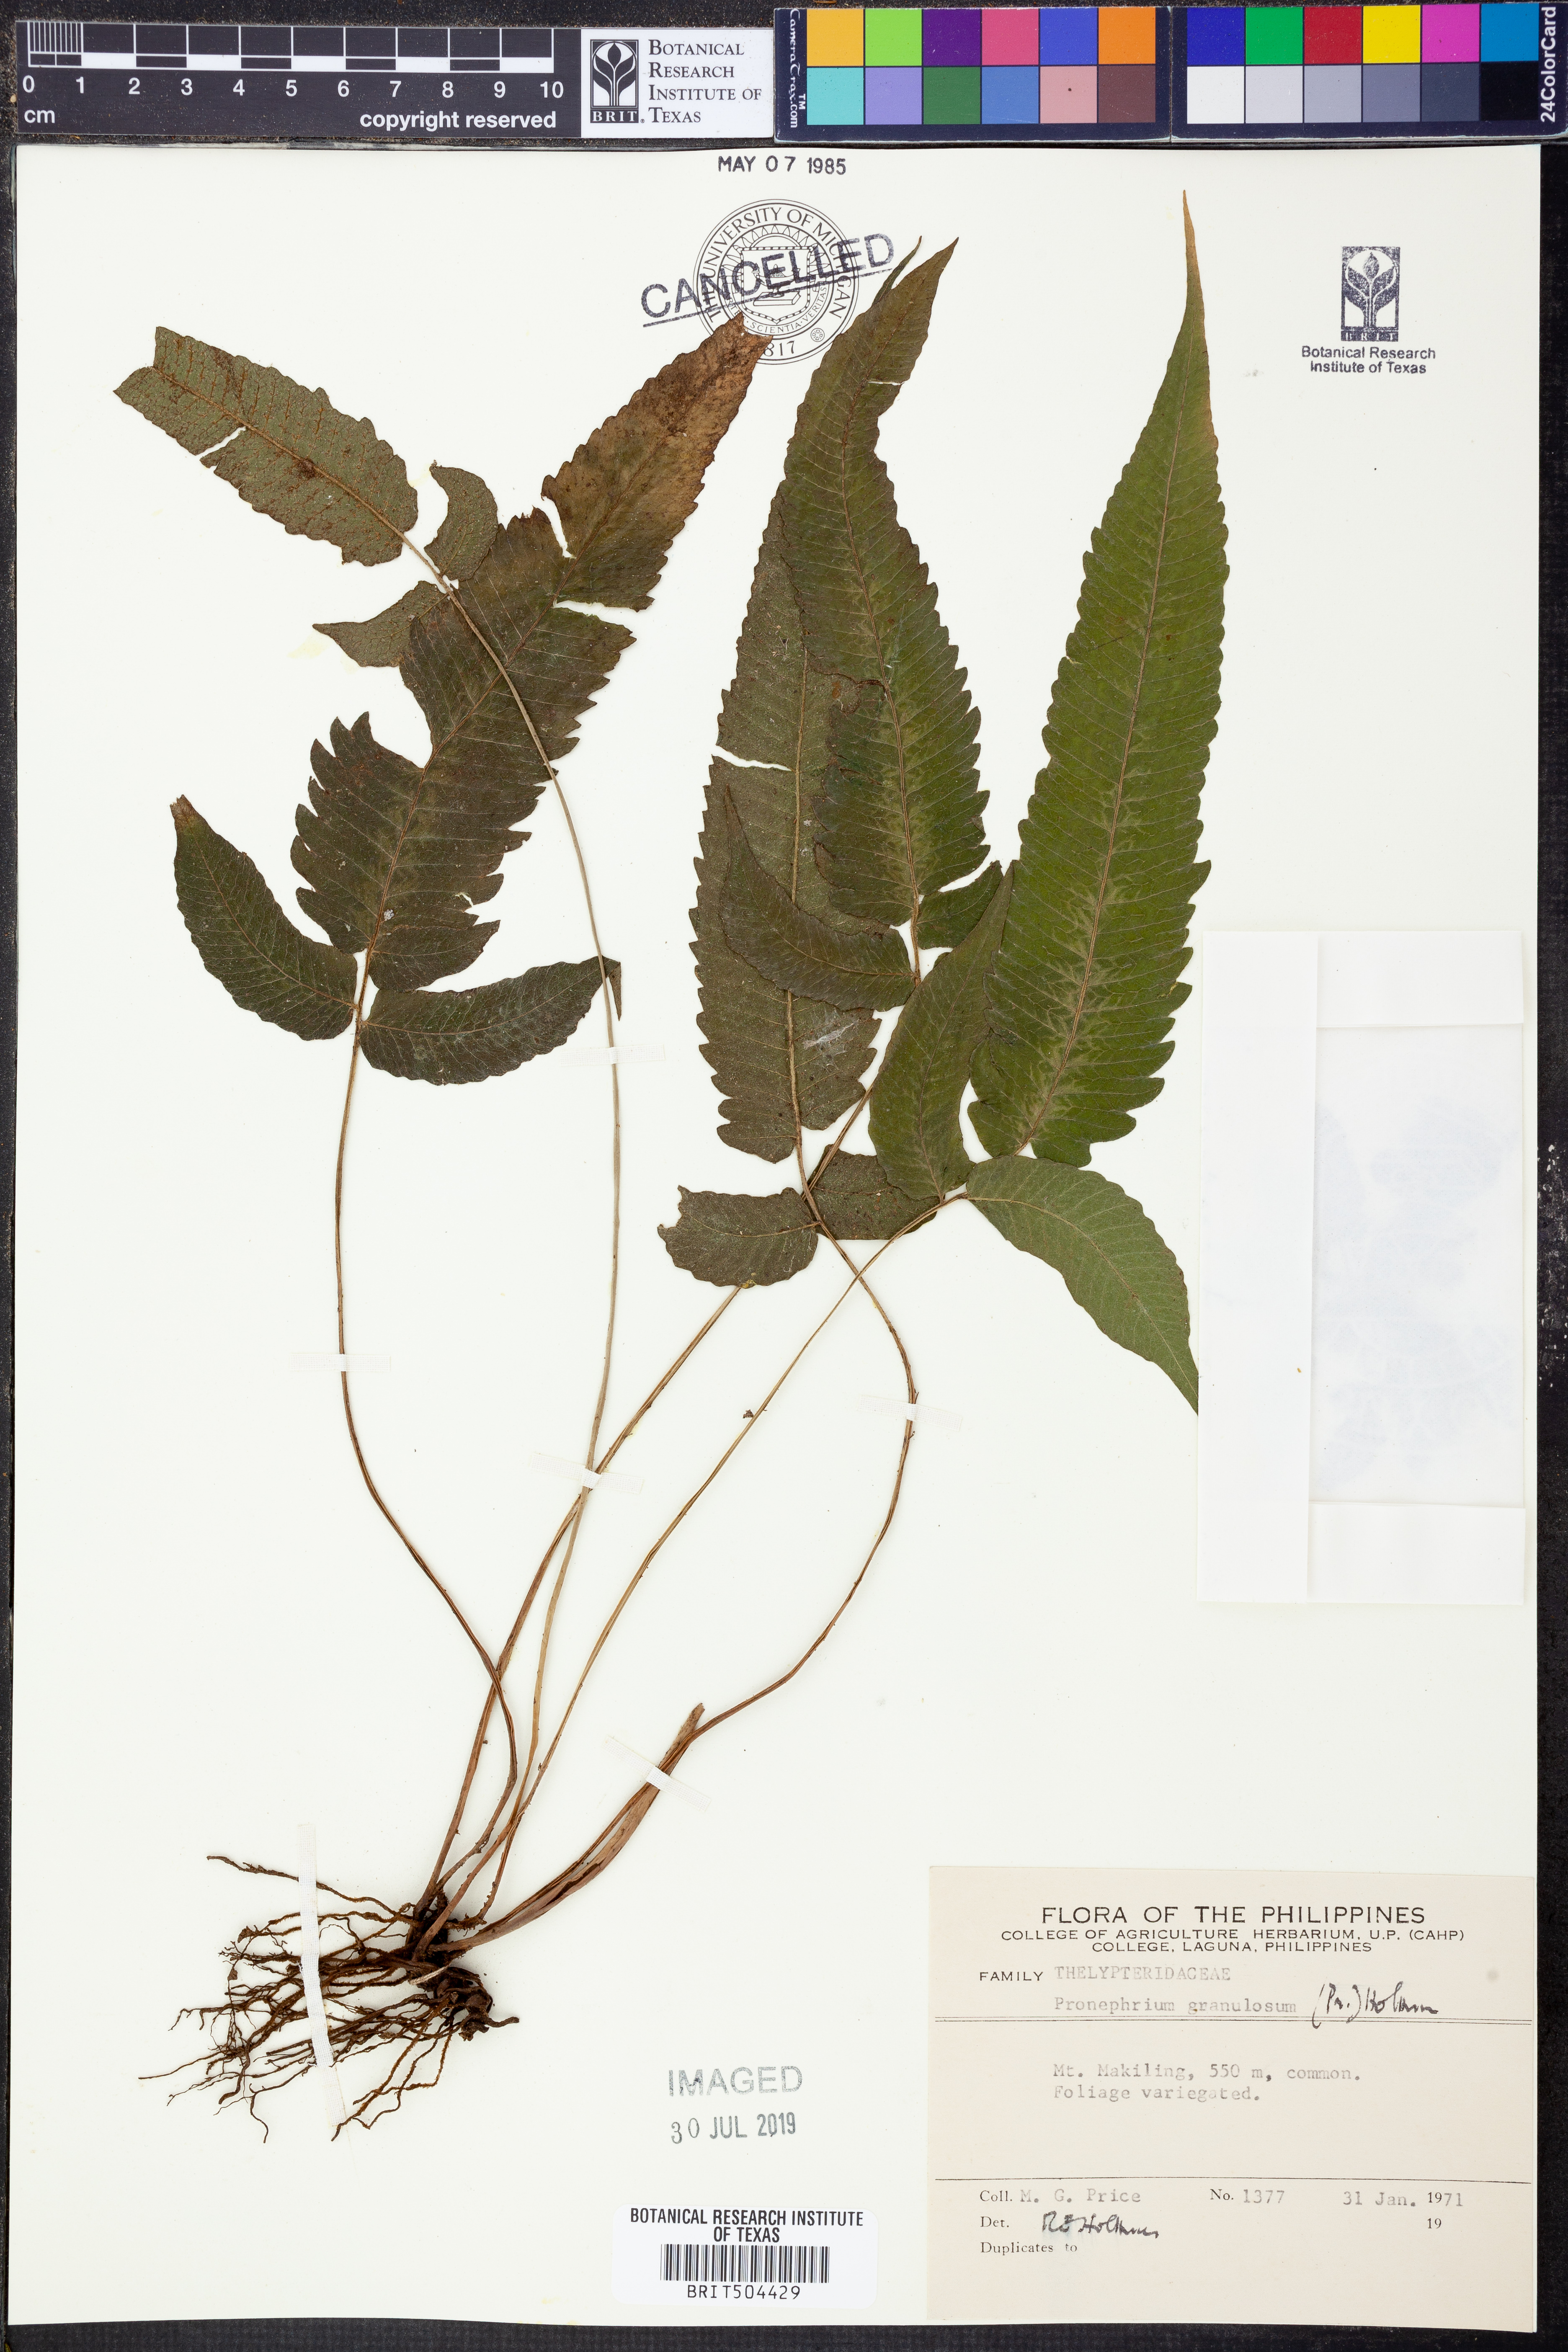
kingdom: Plantae
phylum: Tracheophyta
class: Polypodiopsida
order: Polypodiales
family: Thelypteridaceae
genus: Pronephrium
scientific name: Pronephrium granulosum
